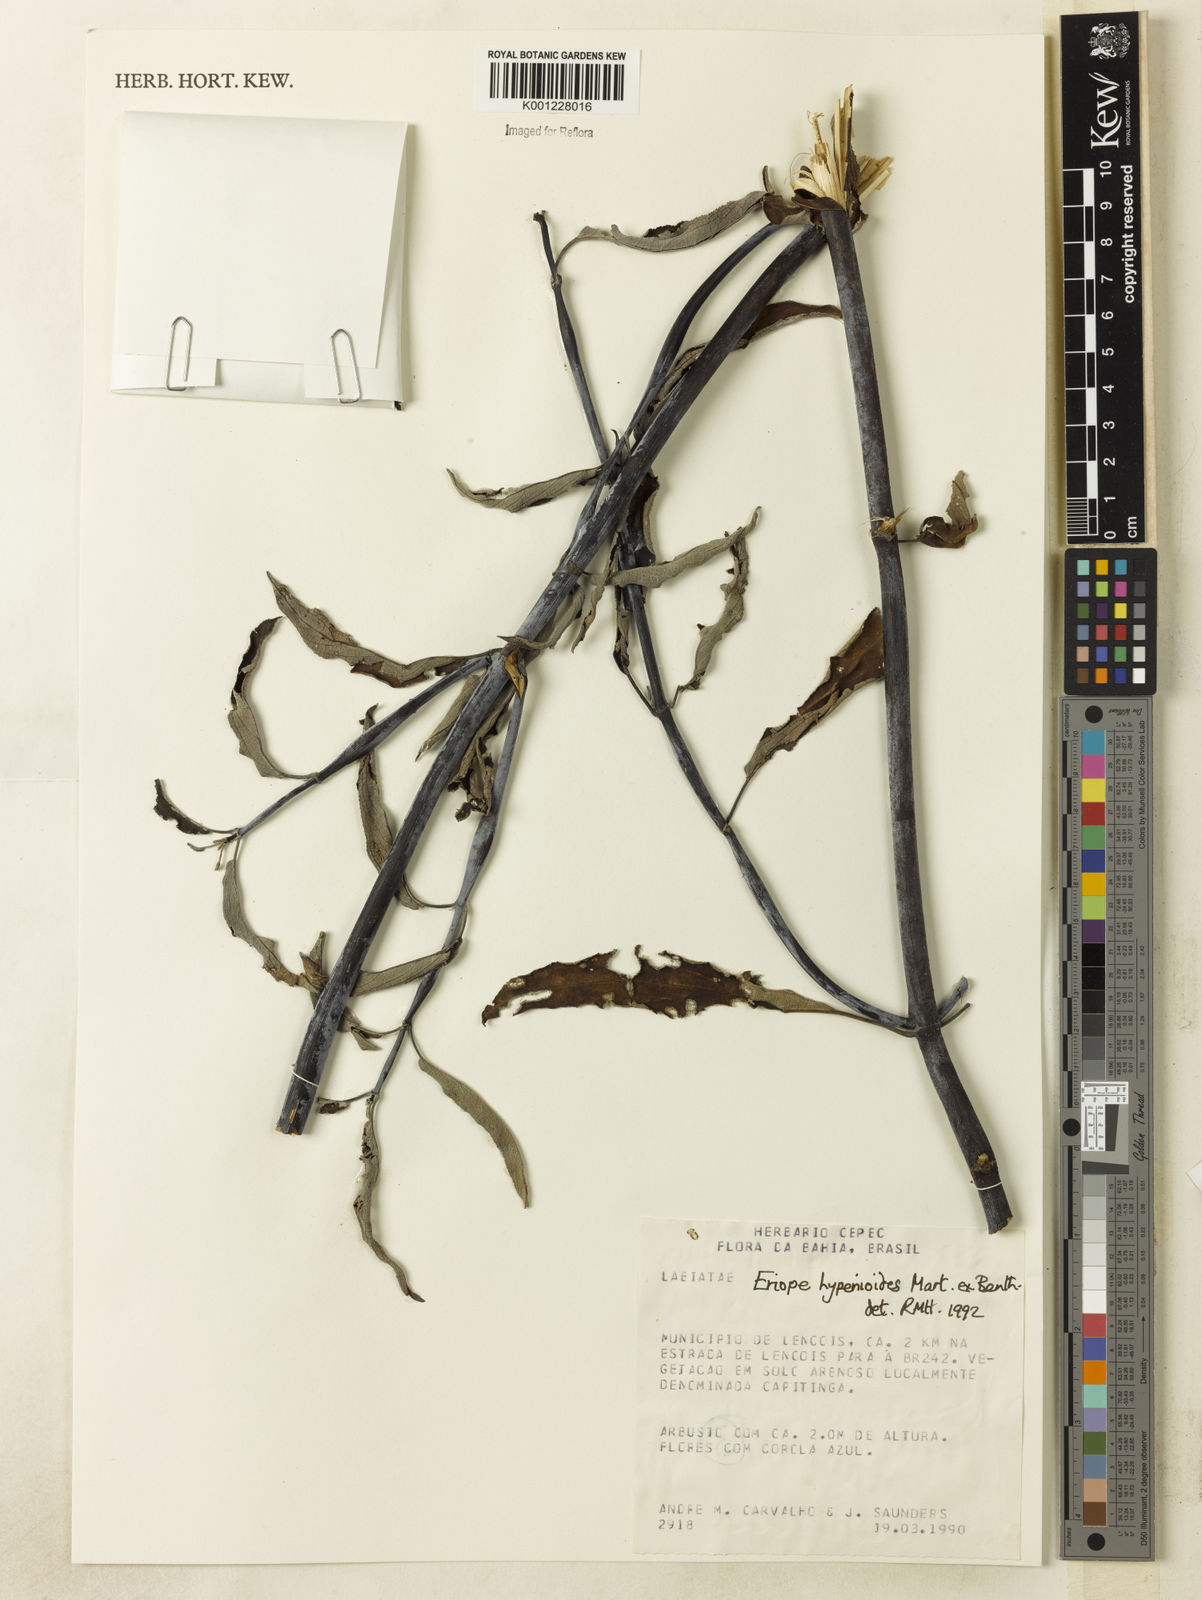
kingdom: Plantae
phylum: Tracheophyta
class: Magnoliopsida
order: Lamiales
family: Lamiaceae
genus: Eriope
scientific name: Eriope hypenioides
